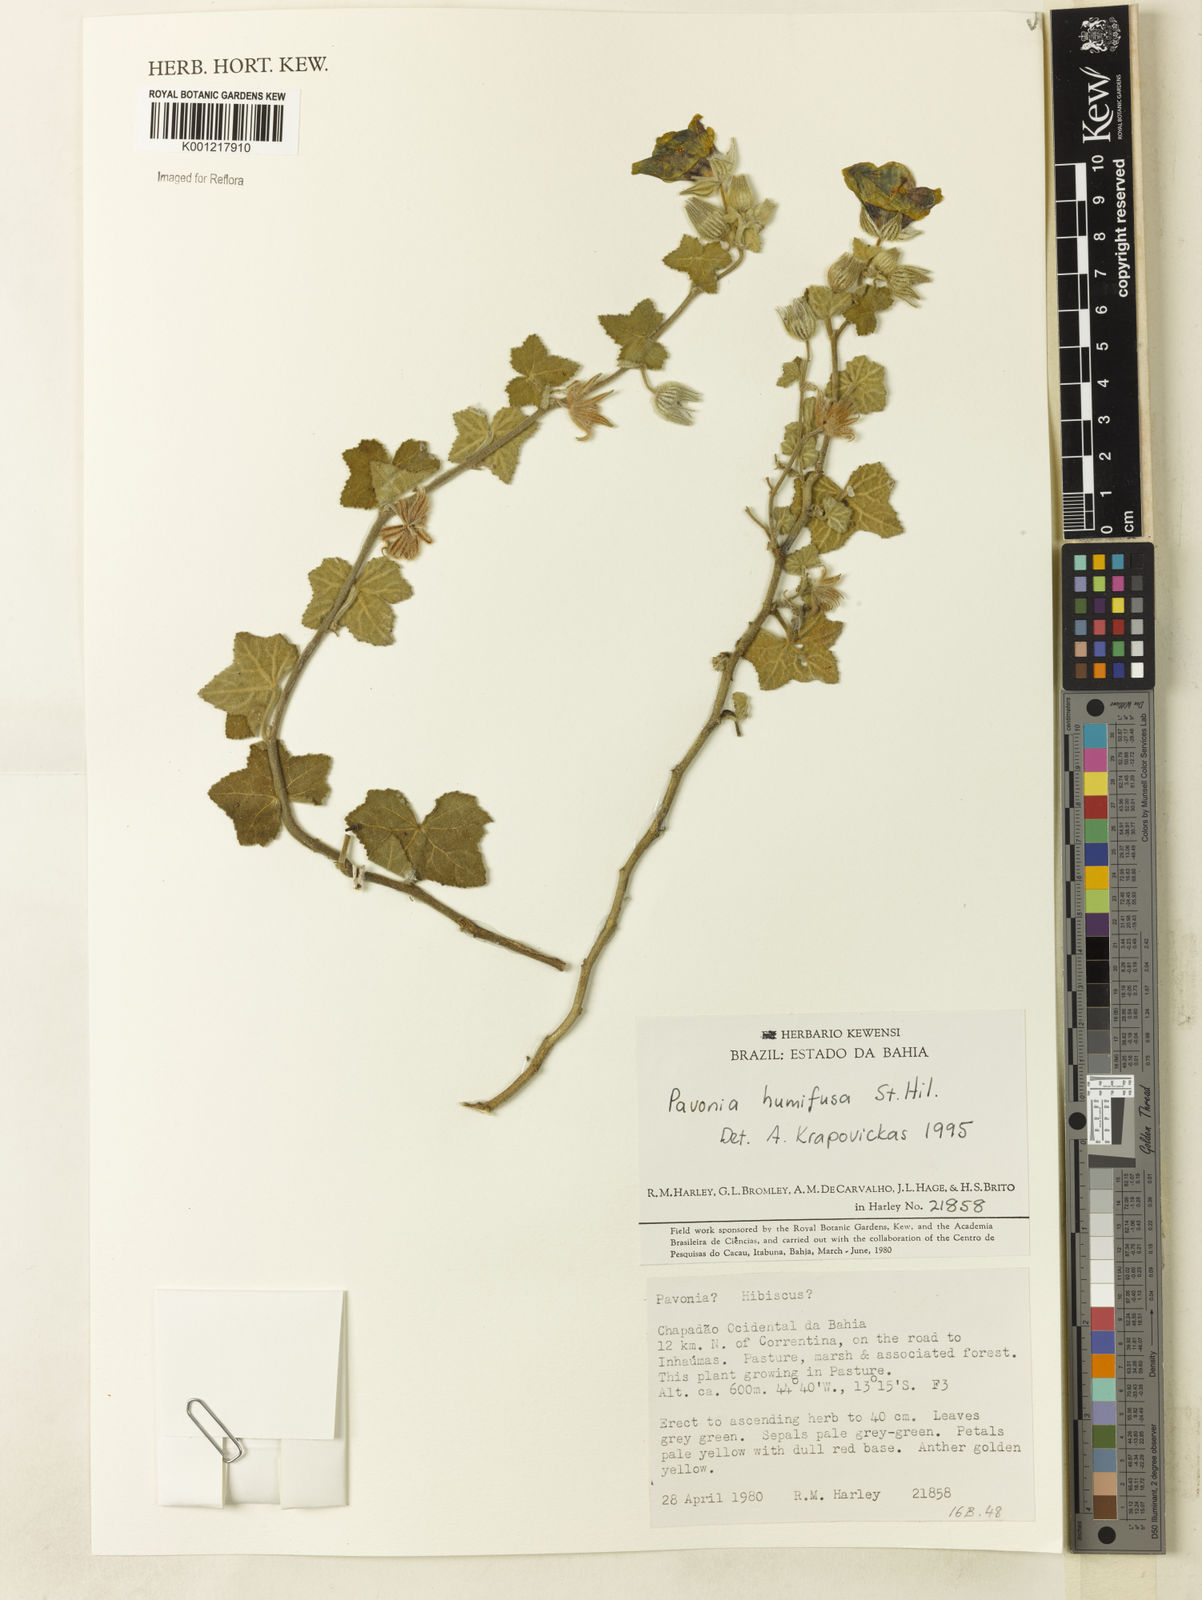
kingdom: Plantae
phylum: Tracheophyta
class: Magnoliopsida
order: Malvales
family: Malvaceae
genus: Pavonia
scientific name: Pavonia humifusa
